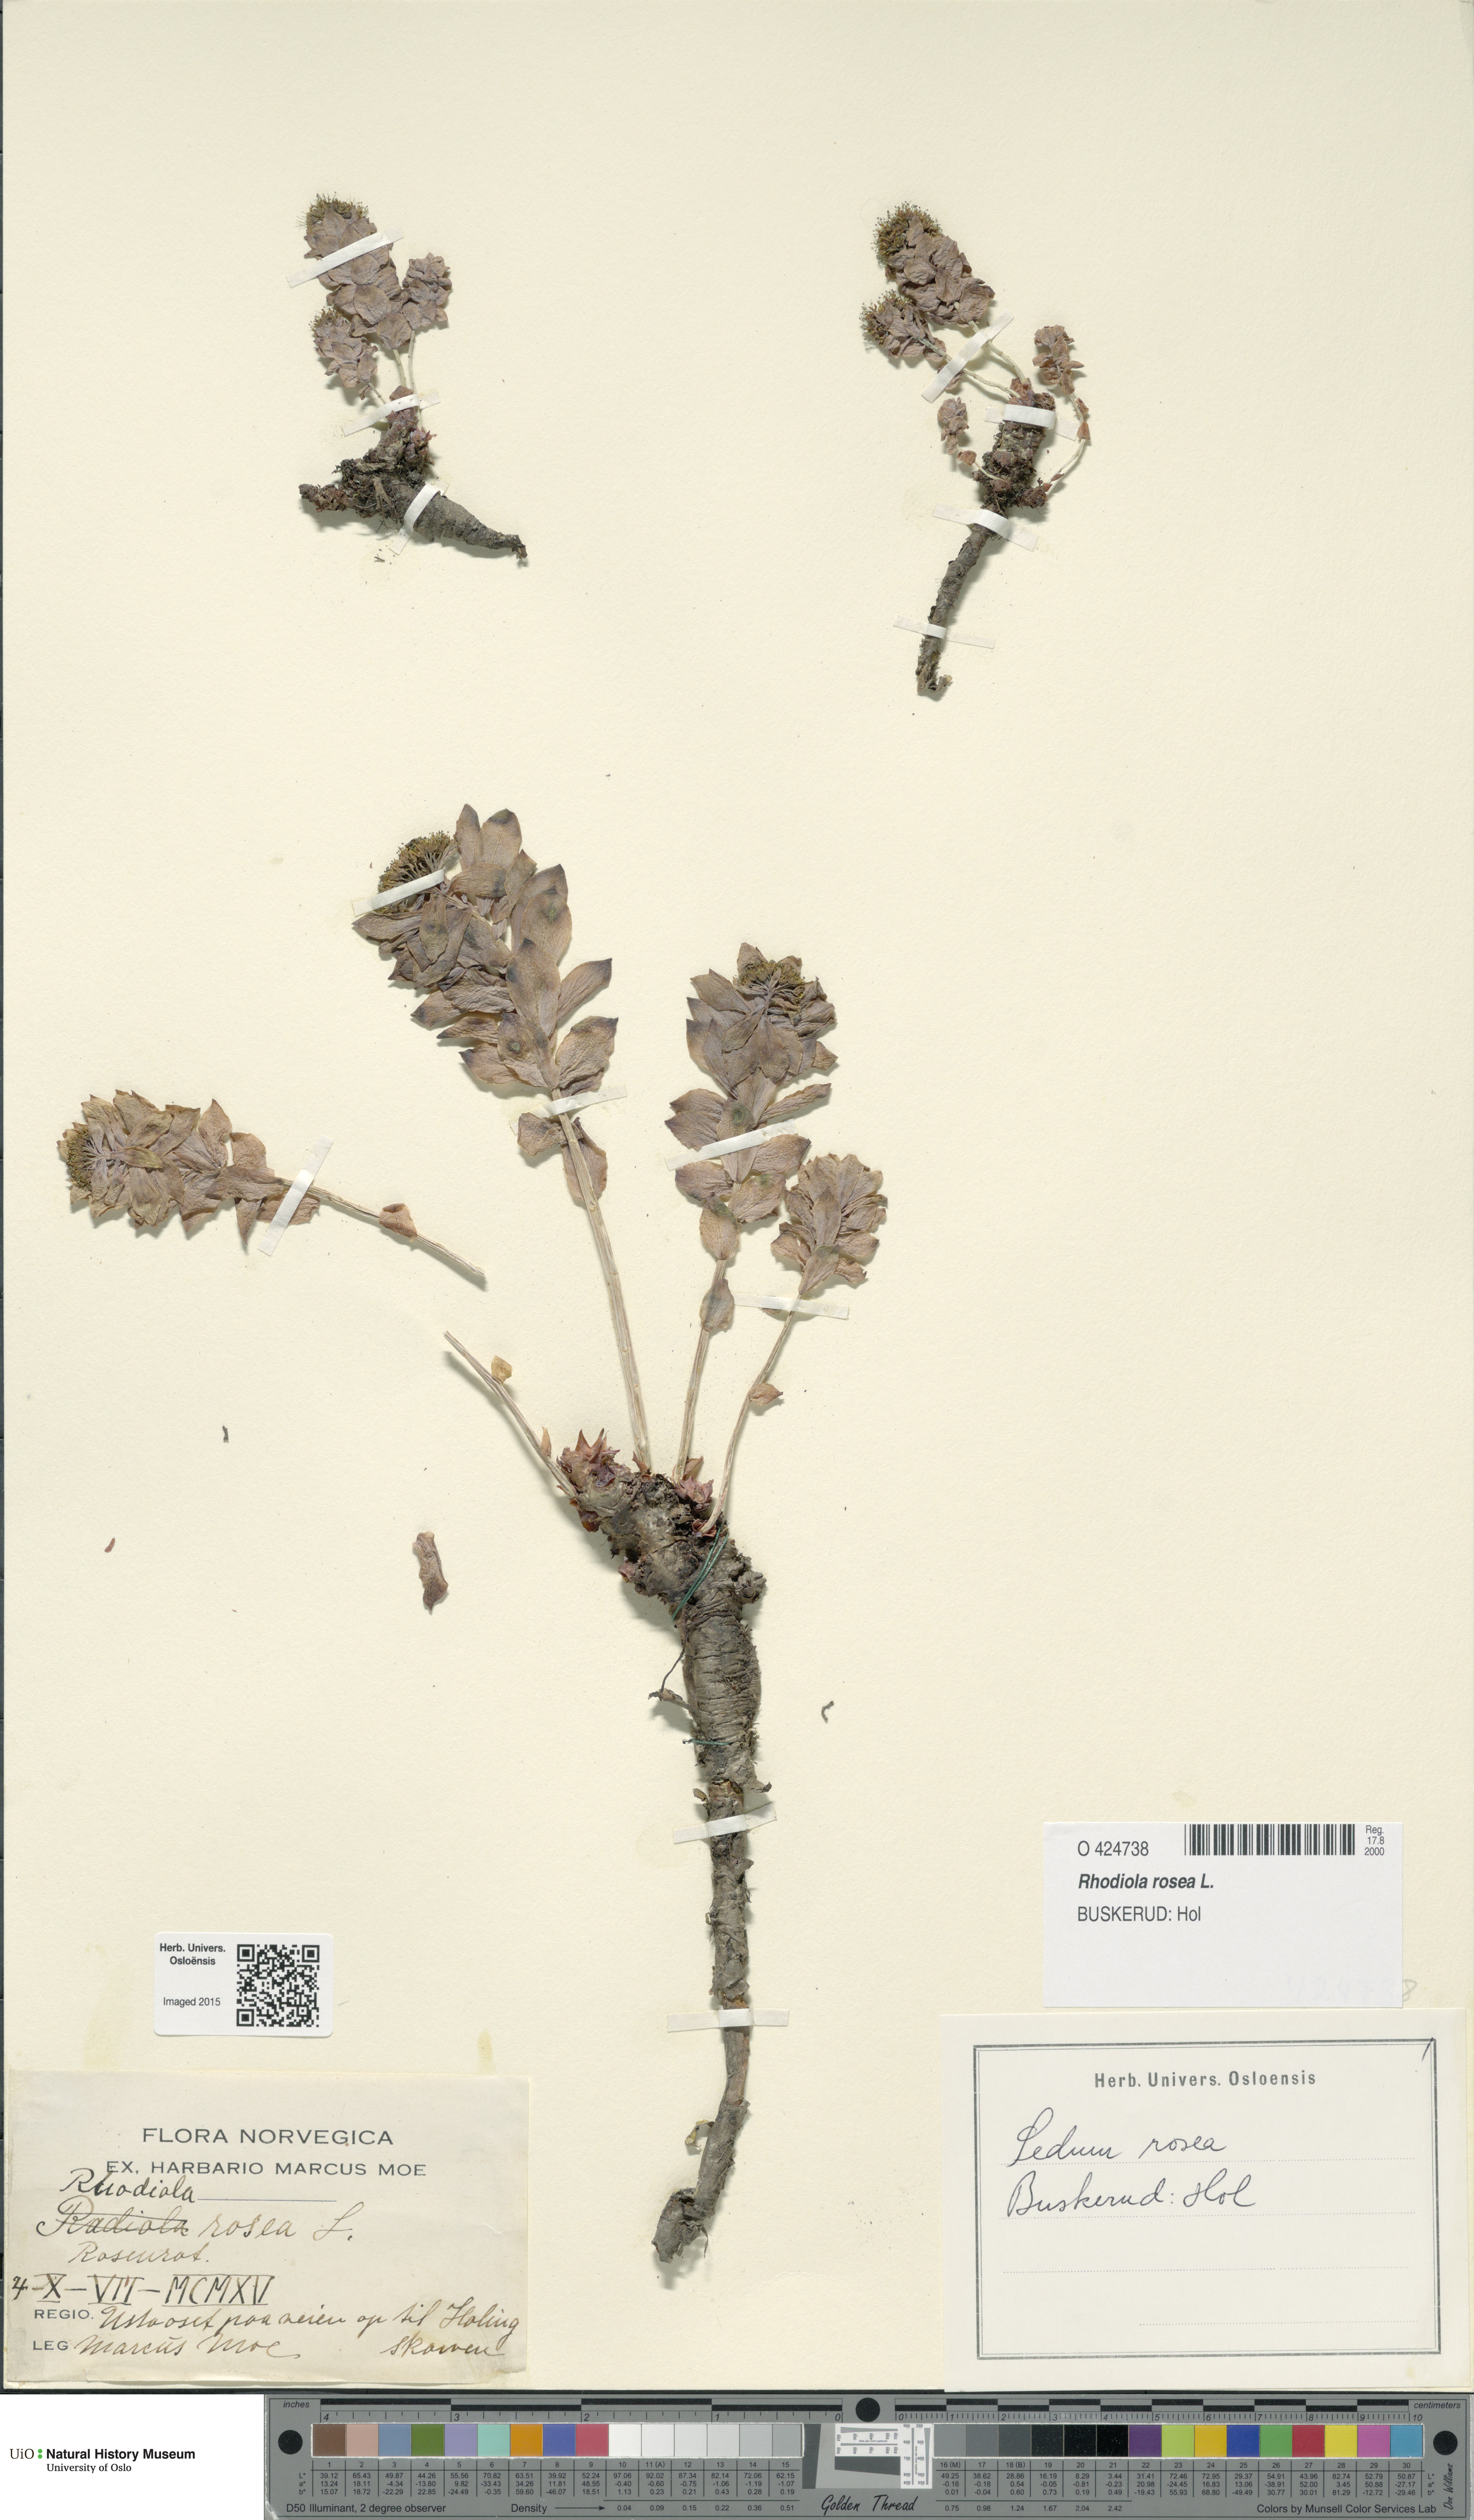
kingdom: Plantae
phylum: Tracheophyta
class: Magnoliopsida
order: Saxifragales
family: Crassulaceae
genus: Rhodiola
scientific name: Rhodiola rosea
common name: Roseroot
